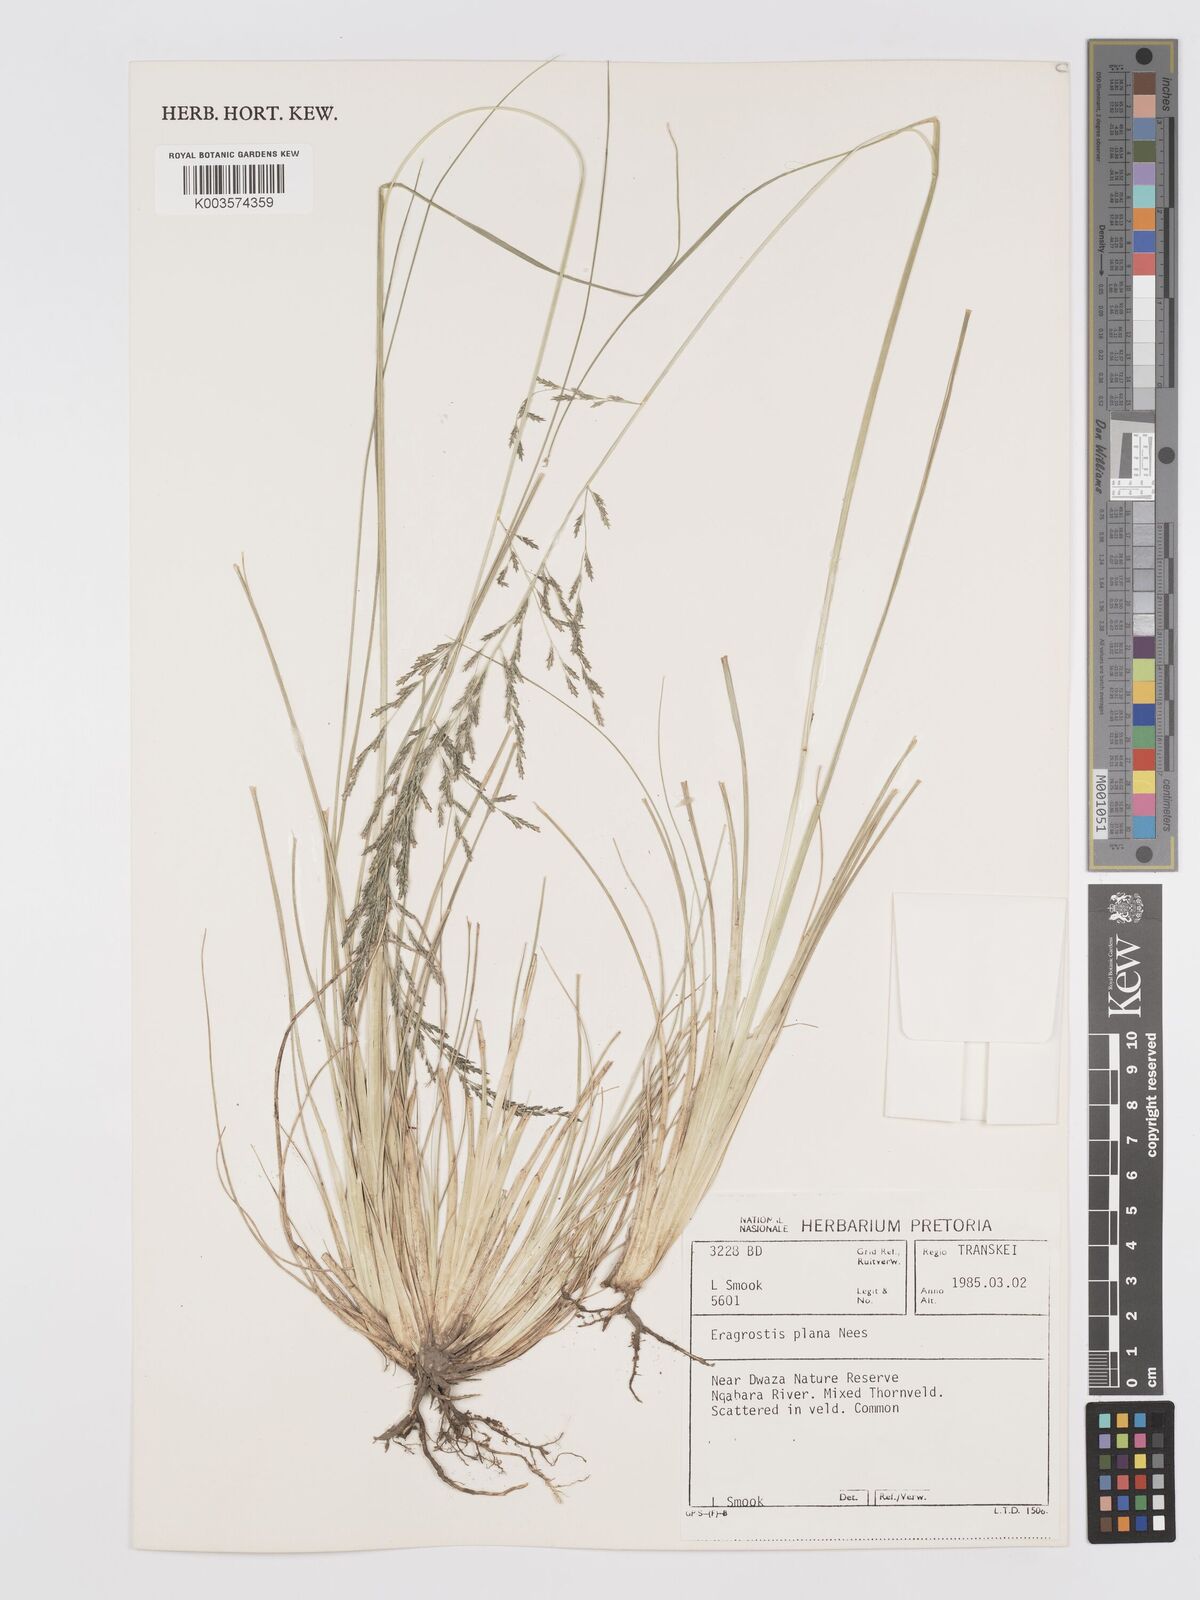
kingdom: Plantae
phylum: Tracheophyta
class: Liliopsida
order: Poales
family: Poaceae
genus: Eragrostis
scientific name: Eragrostis plana
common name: South african lovegrass
